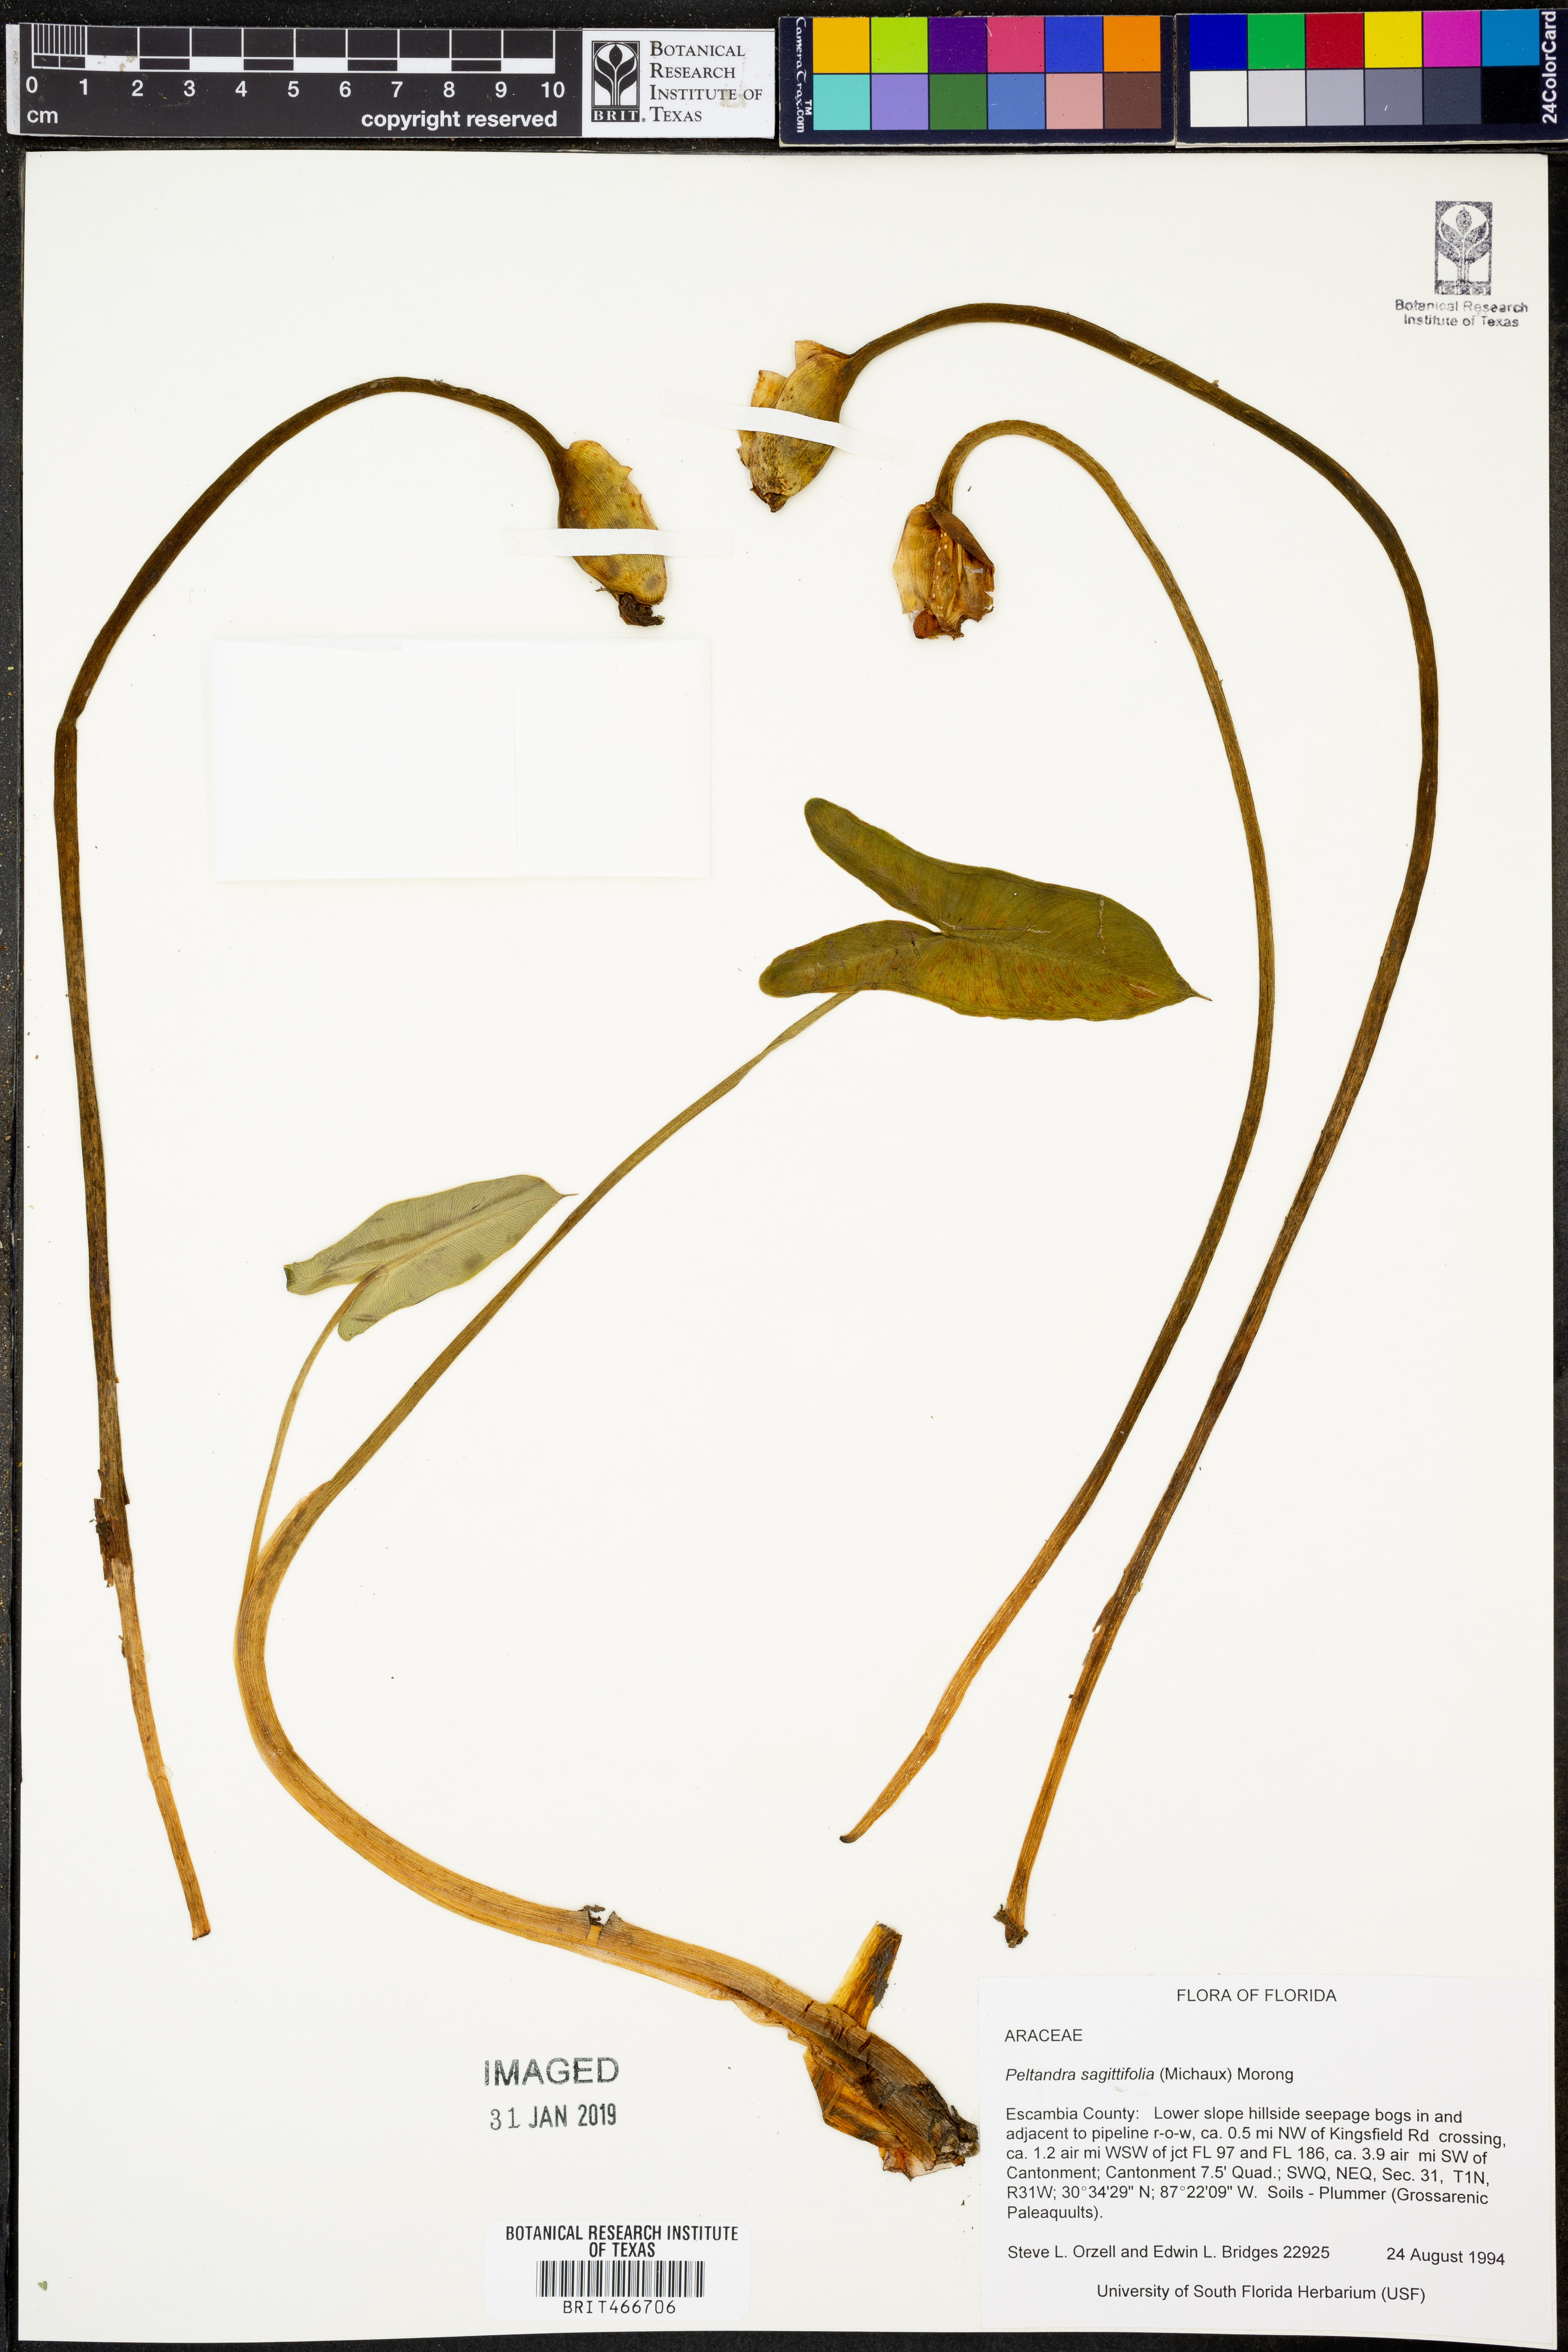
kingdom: Plantae
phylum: Tracheophyta
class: Liliopsida
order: Alismatales
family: Araceae
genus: Peltandra
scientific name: Peltandra sagittifolia
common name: White arrow arum
